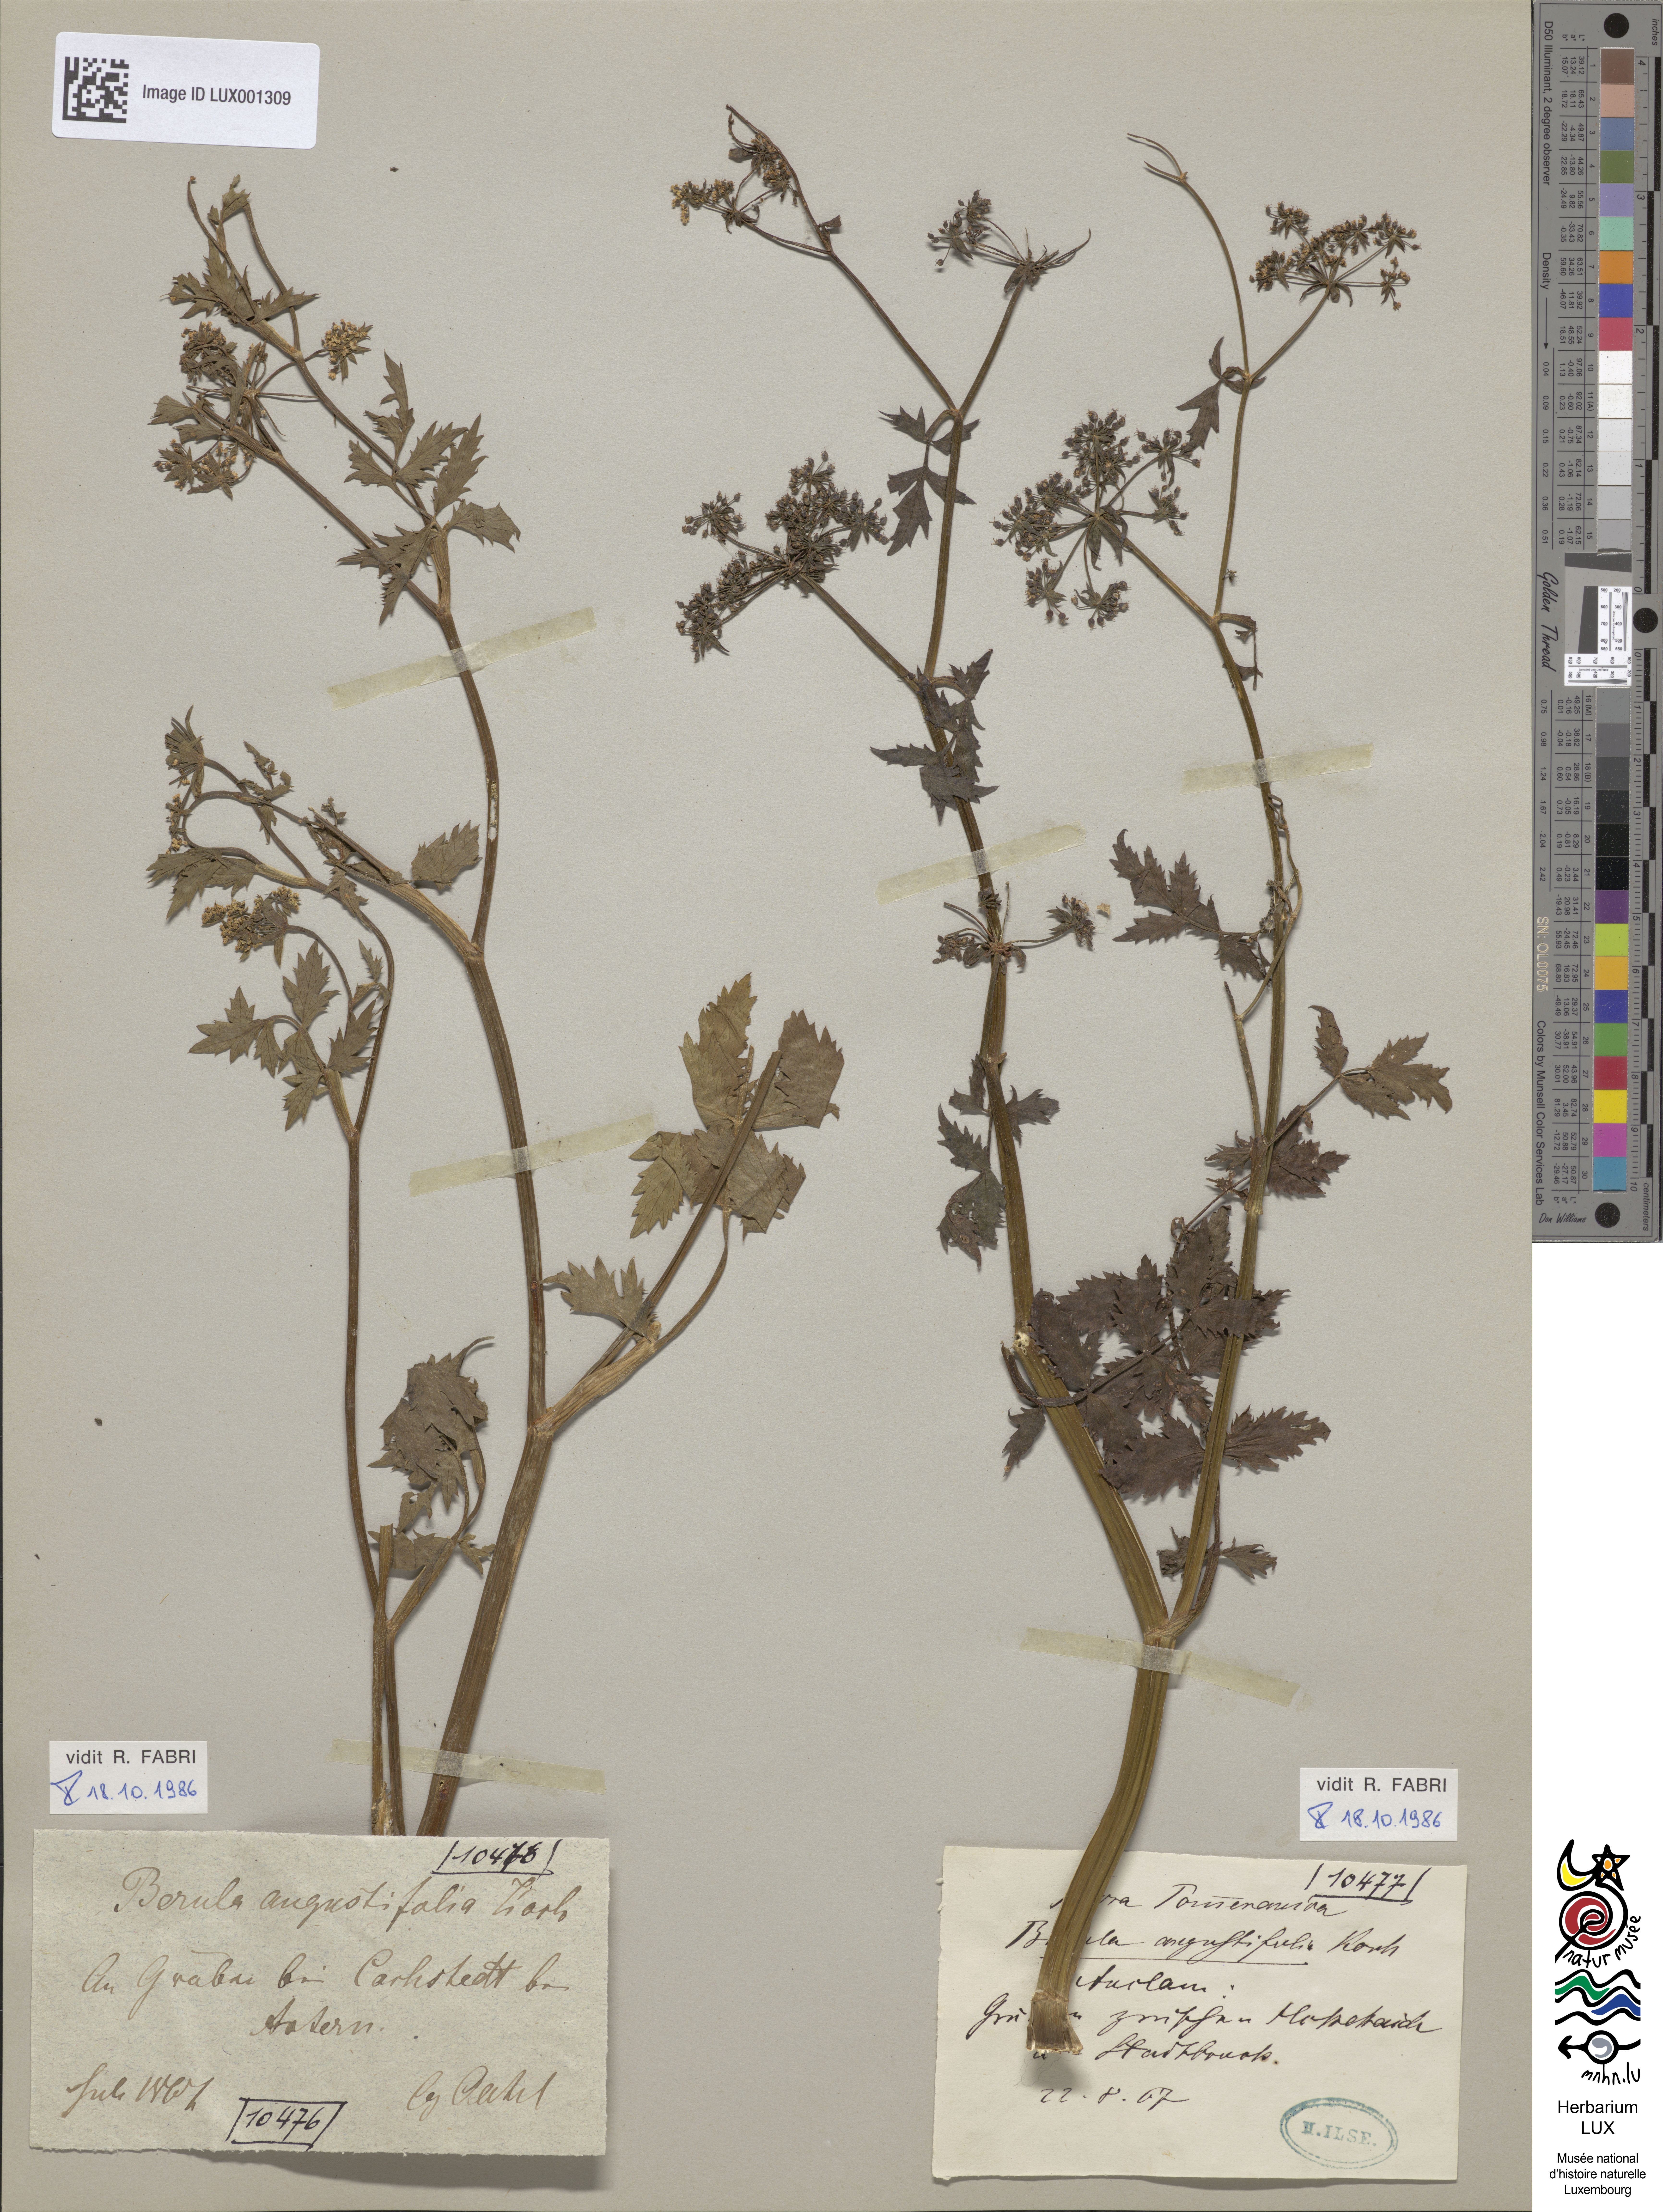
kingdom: Plantae
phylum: Tracheophyta
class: Magnoliopsida
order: Apiales
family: Apiaceae
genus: Berula
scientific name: Berula erecta
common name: Lesser water-parsnip
